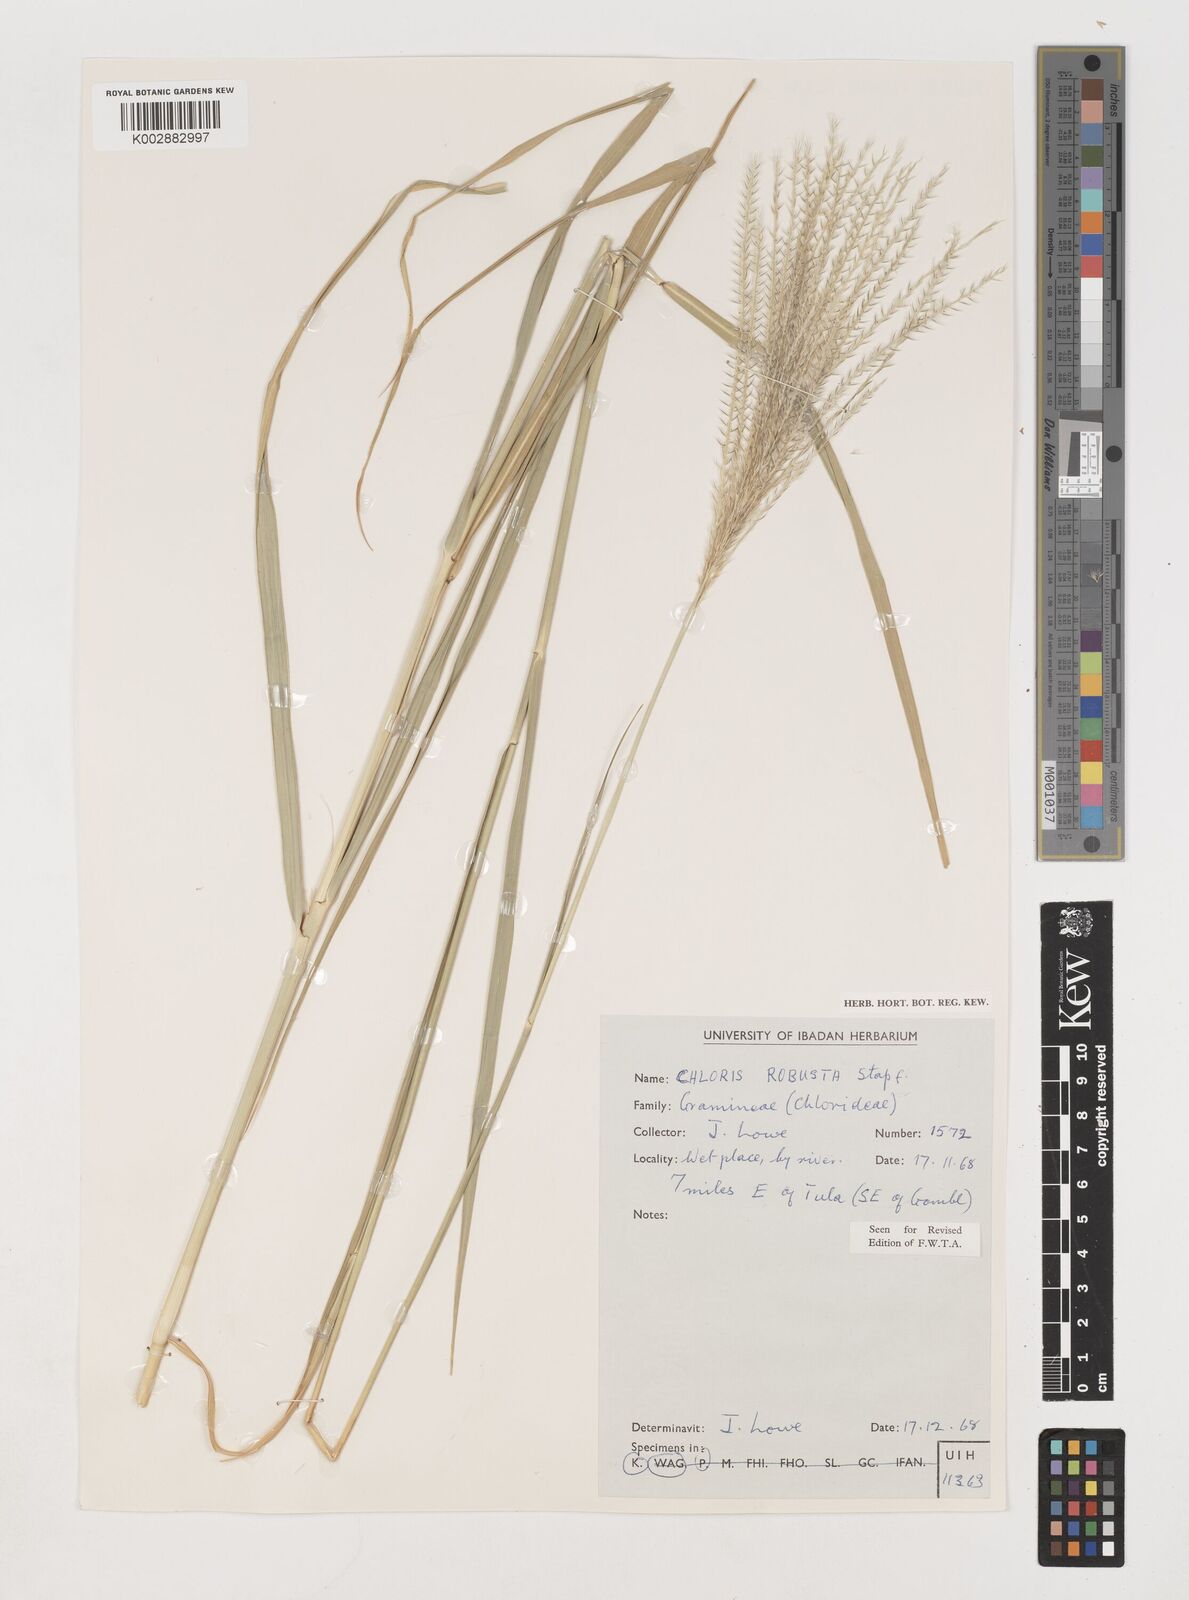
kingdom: Plantae
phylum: Tracheophyta
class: Liliopsida
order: Poales
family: Poaceae
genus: Chloris
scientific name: Chloris robusta
